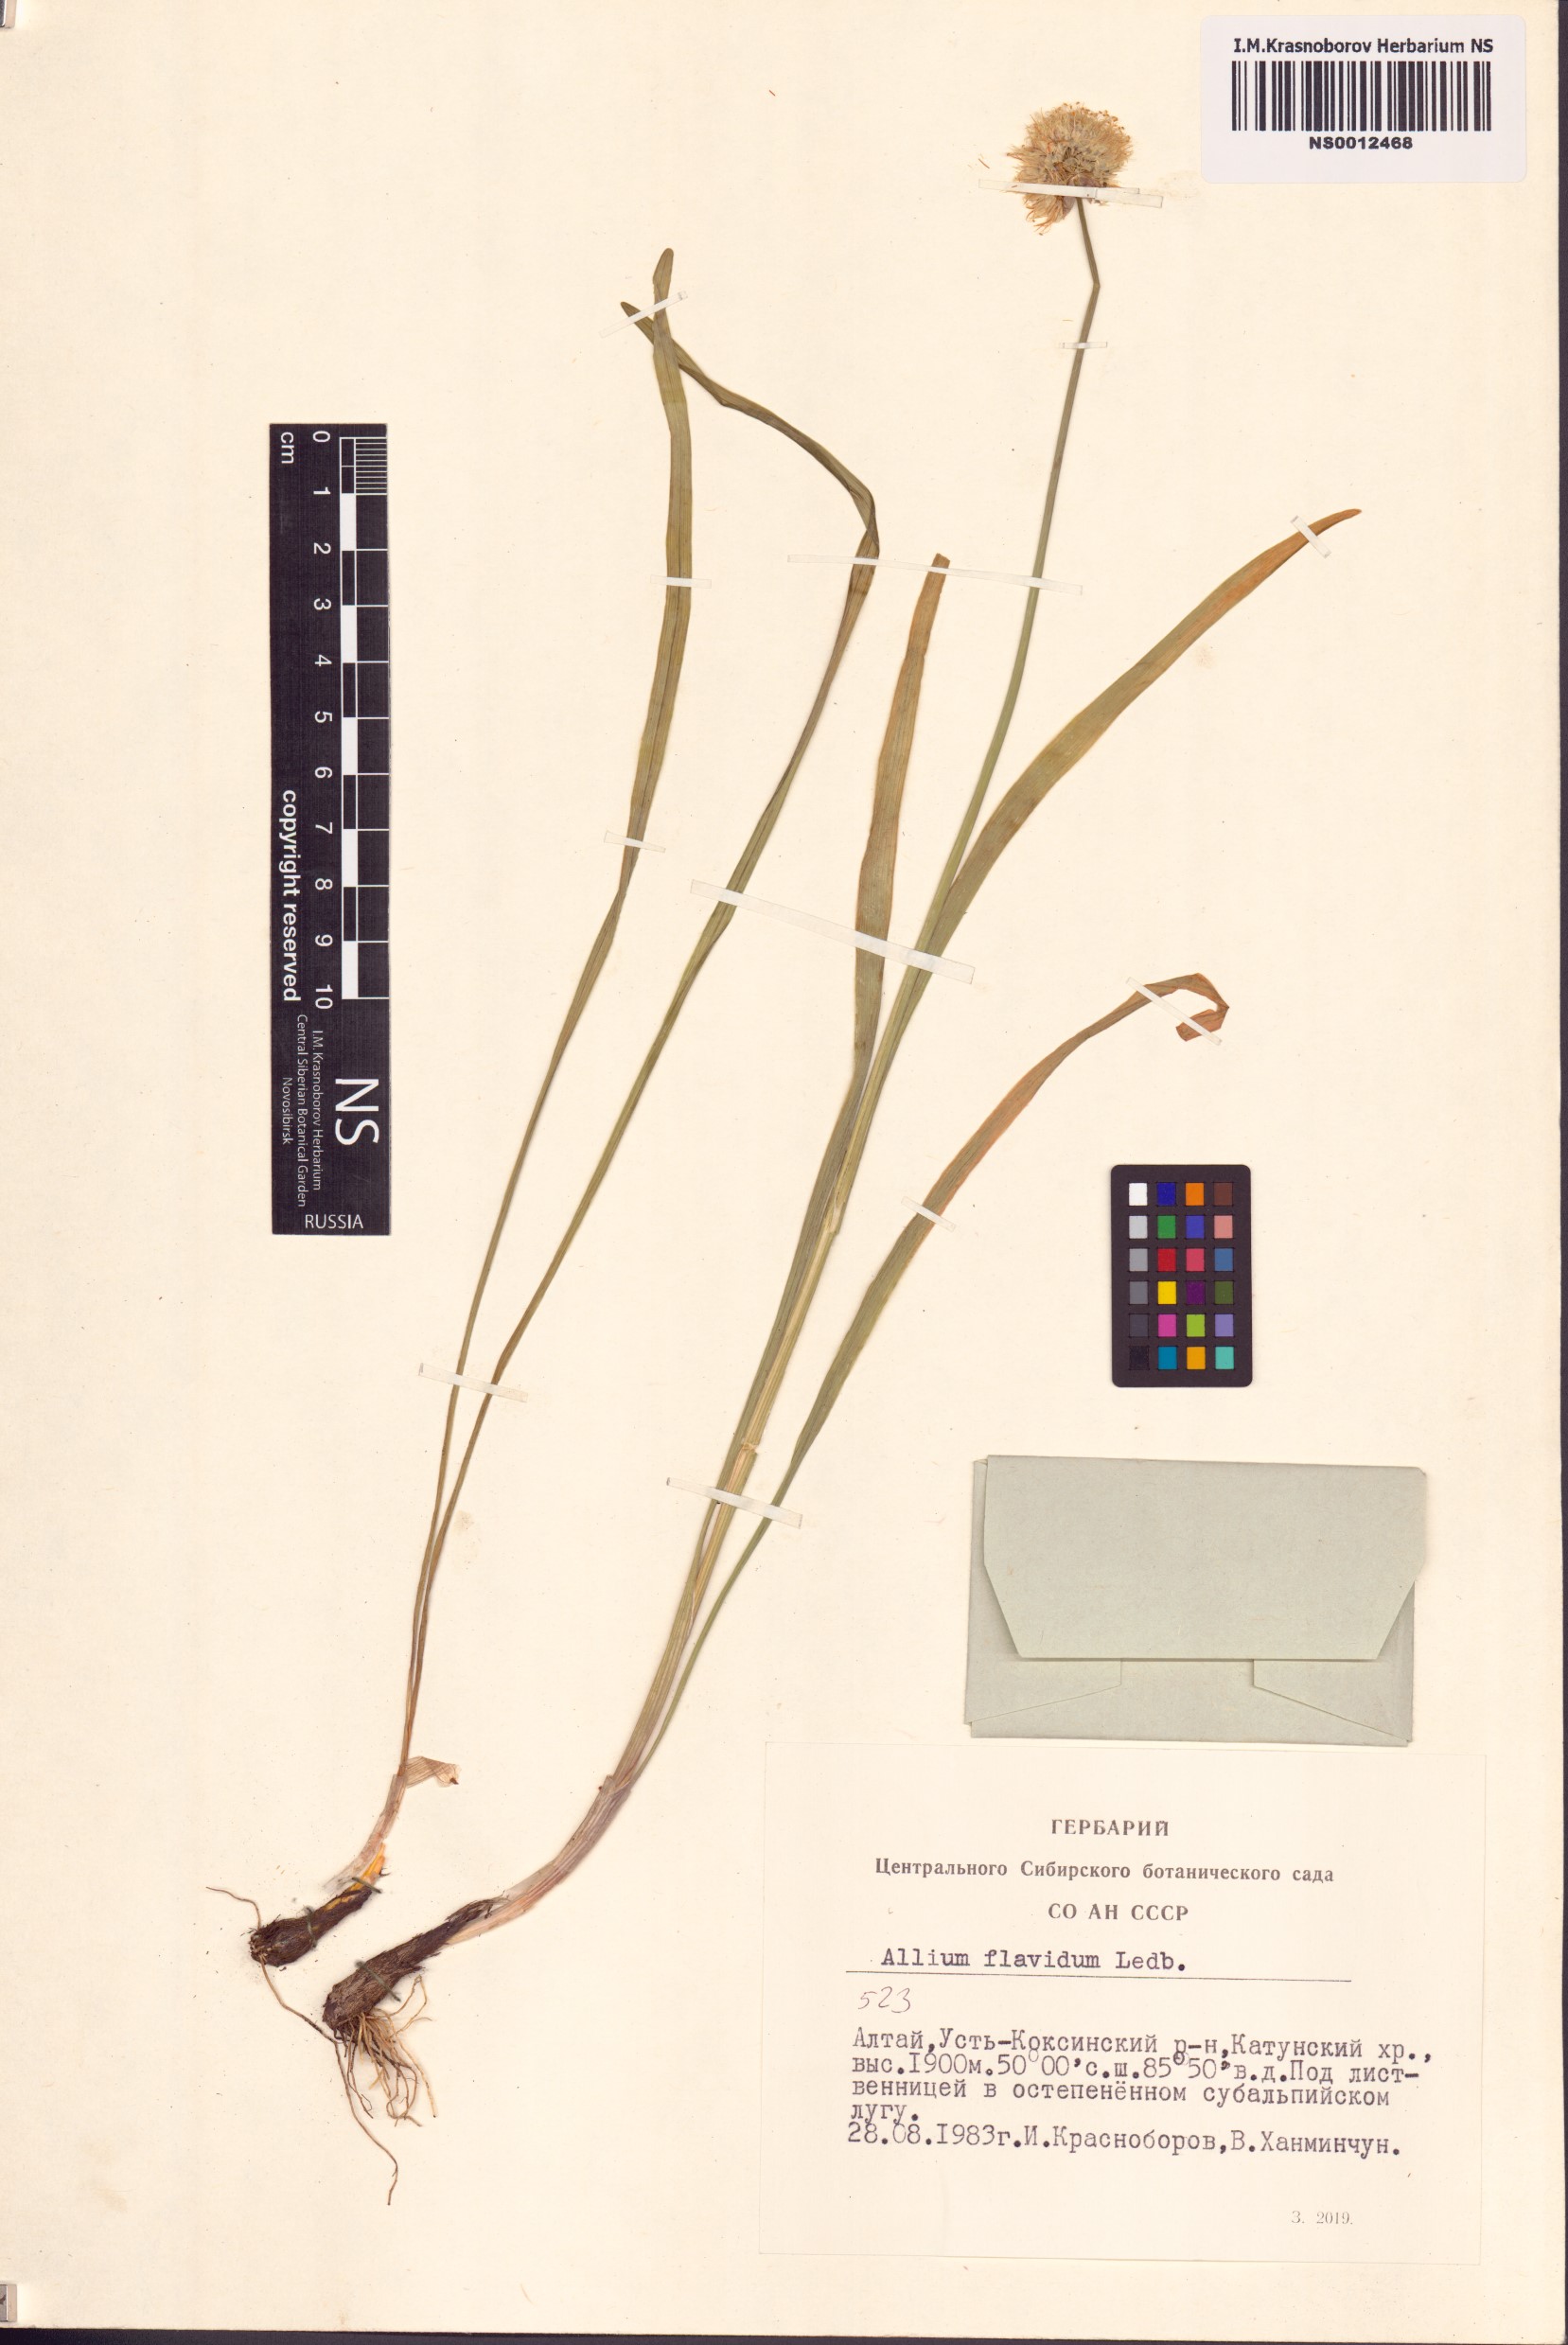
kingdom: Plantae
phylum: Tracheophyta
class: Liliopsida
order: Asparagales
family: Amaryllidaceae
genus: Allium
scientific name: Allium flavidum
